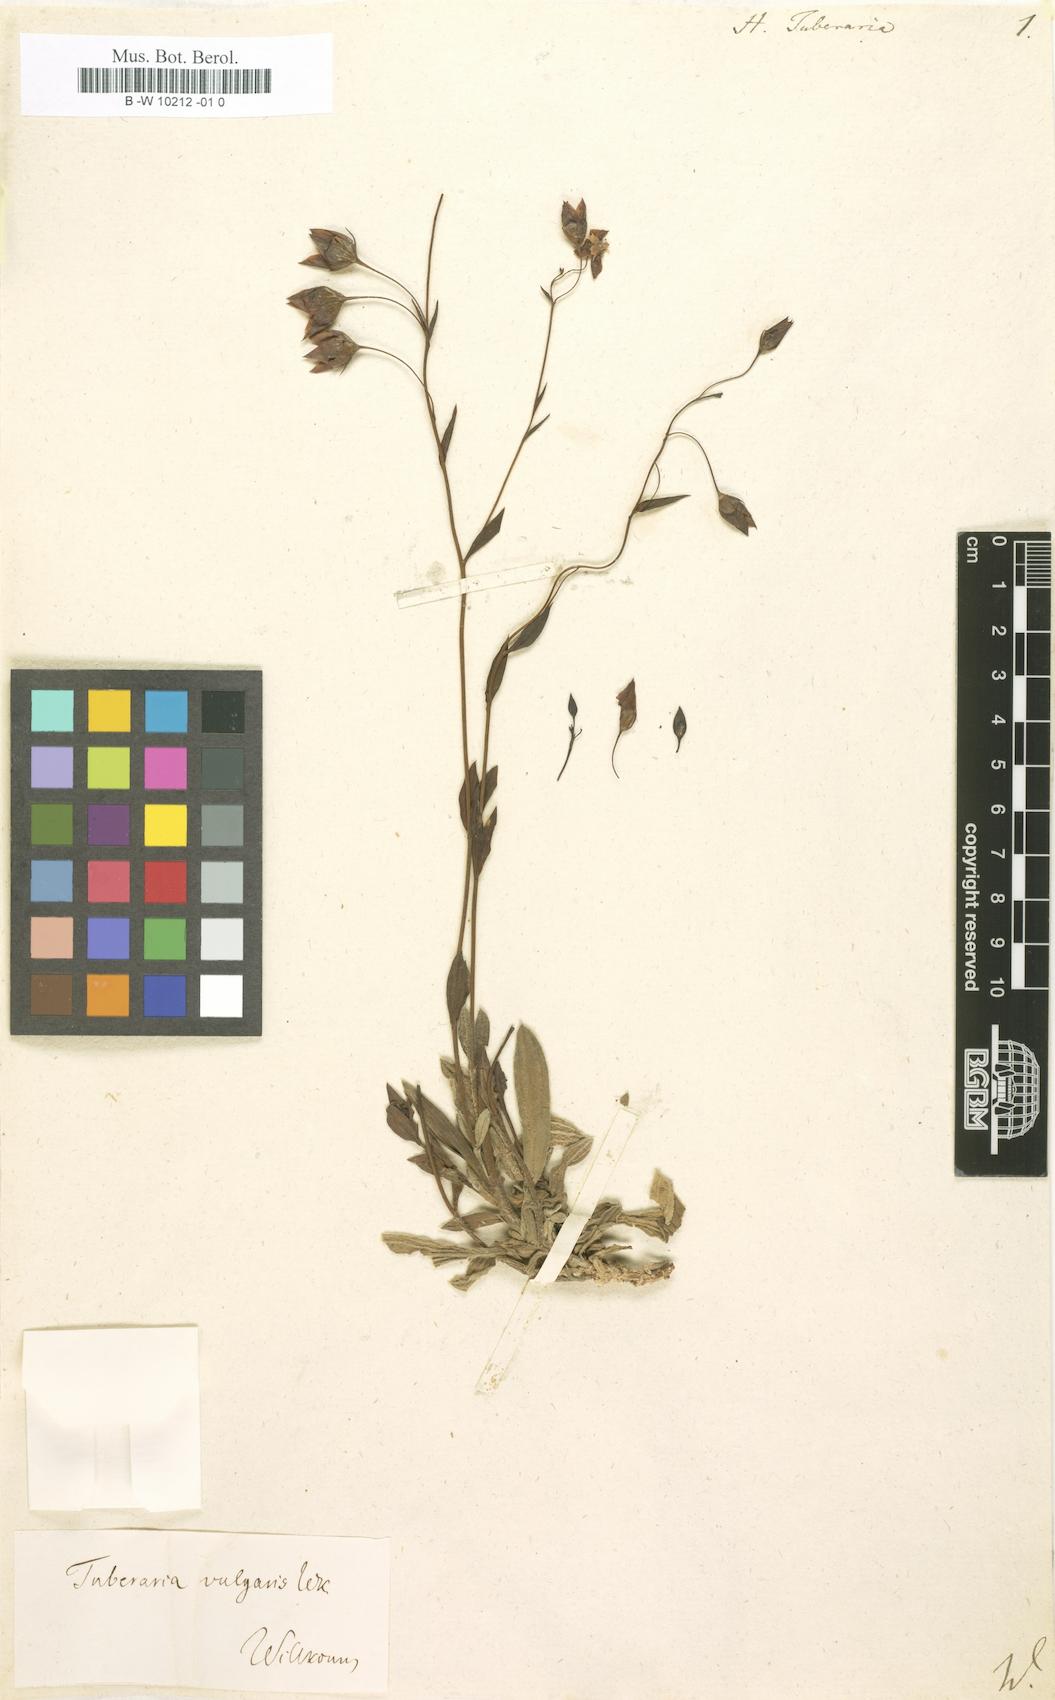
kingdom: Plantae
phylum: Tracheophyta
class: Magnoliopsida
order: Malvales
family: Cistaceae
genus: Tuberaria
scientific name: Tuberaria
